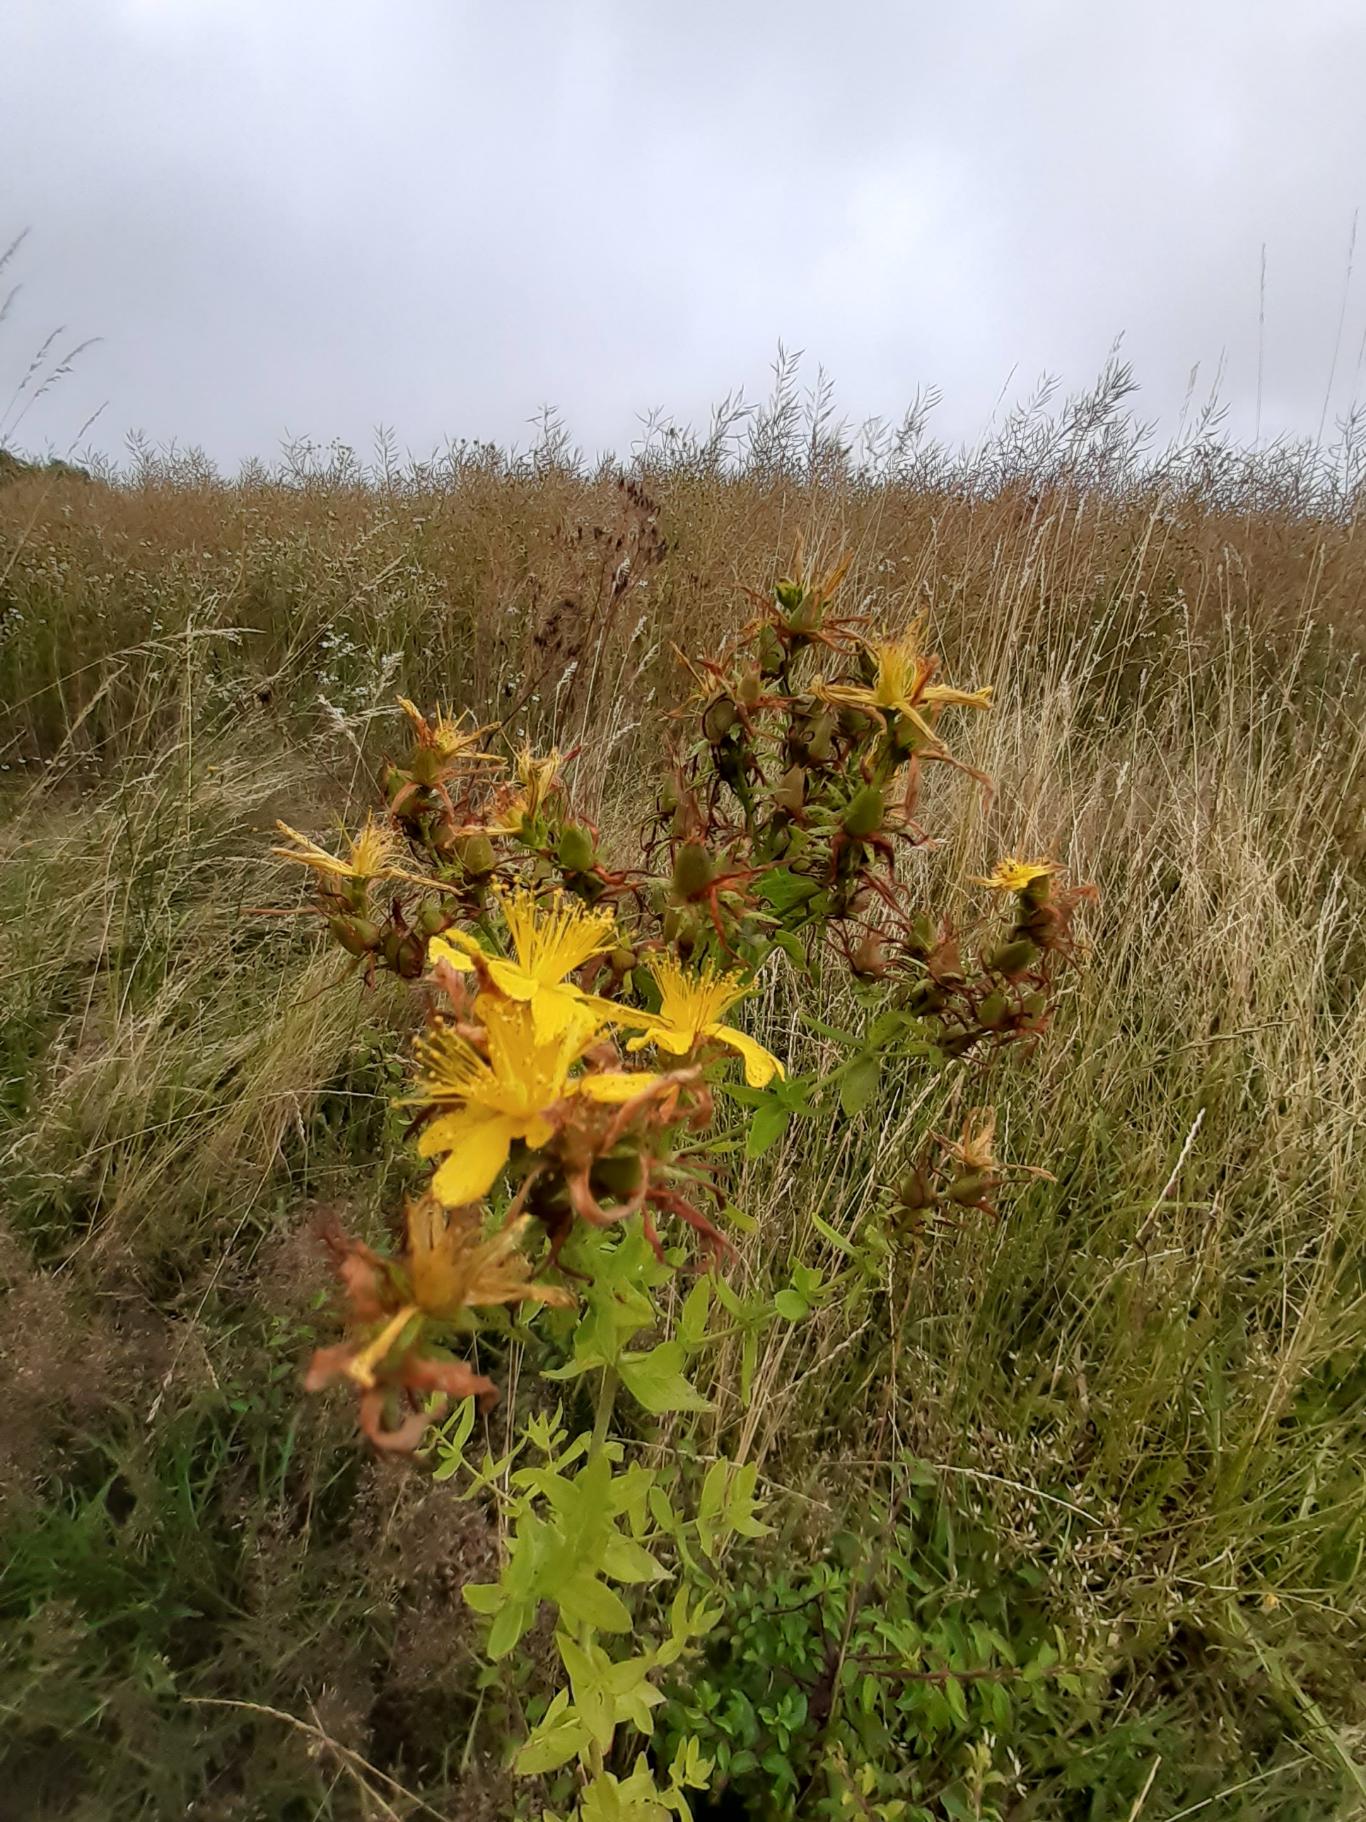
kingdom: Plantae
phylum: Tracheophyta
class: Magnoliopsida
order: Malpighiales
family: Hypericaceae
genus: Hypericum
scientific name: Hypericum perforatum
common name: Prikbladet perikon
